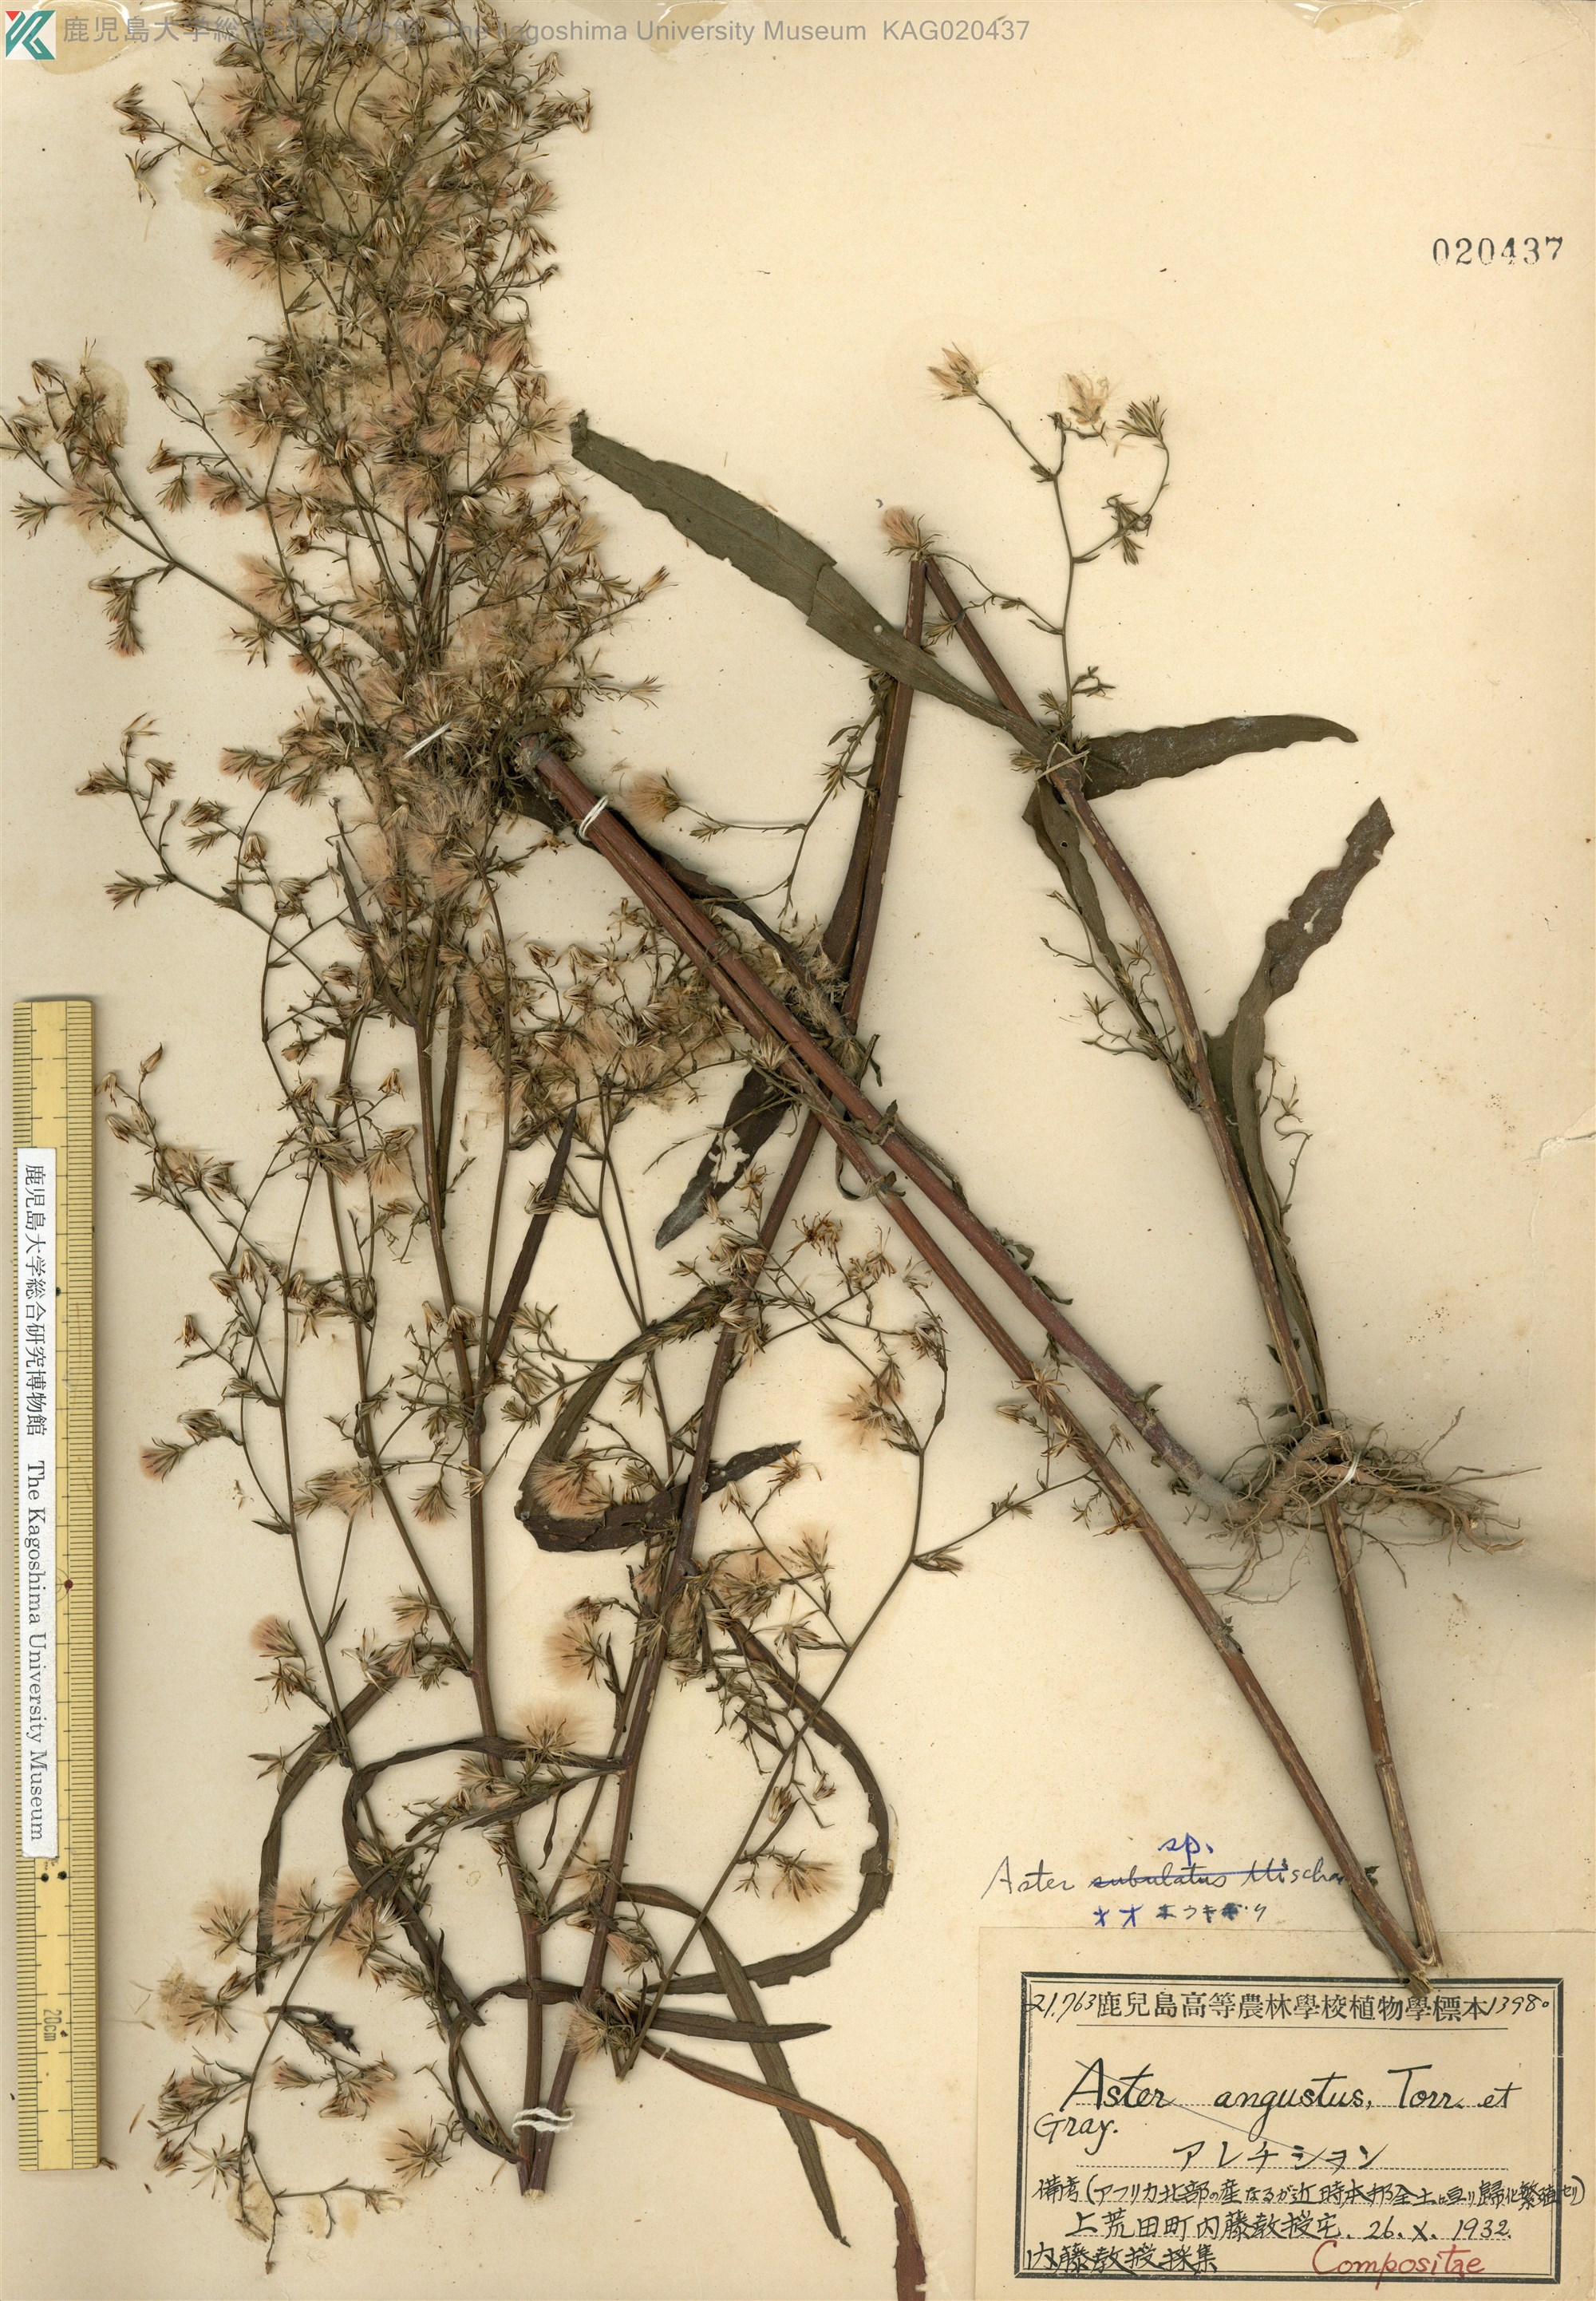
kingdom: Plantae
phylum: Tracheophyta
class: Magnoliopsida
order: Asterales
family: Asteraceae
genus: Symphyotrichum
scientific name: Symphyotrichum subulatum
